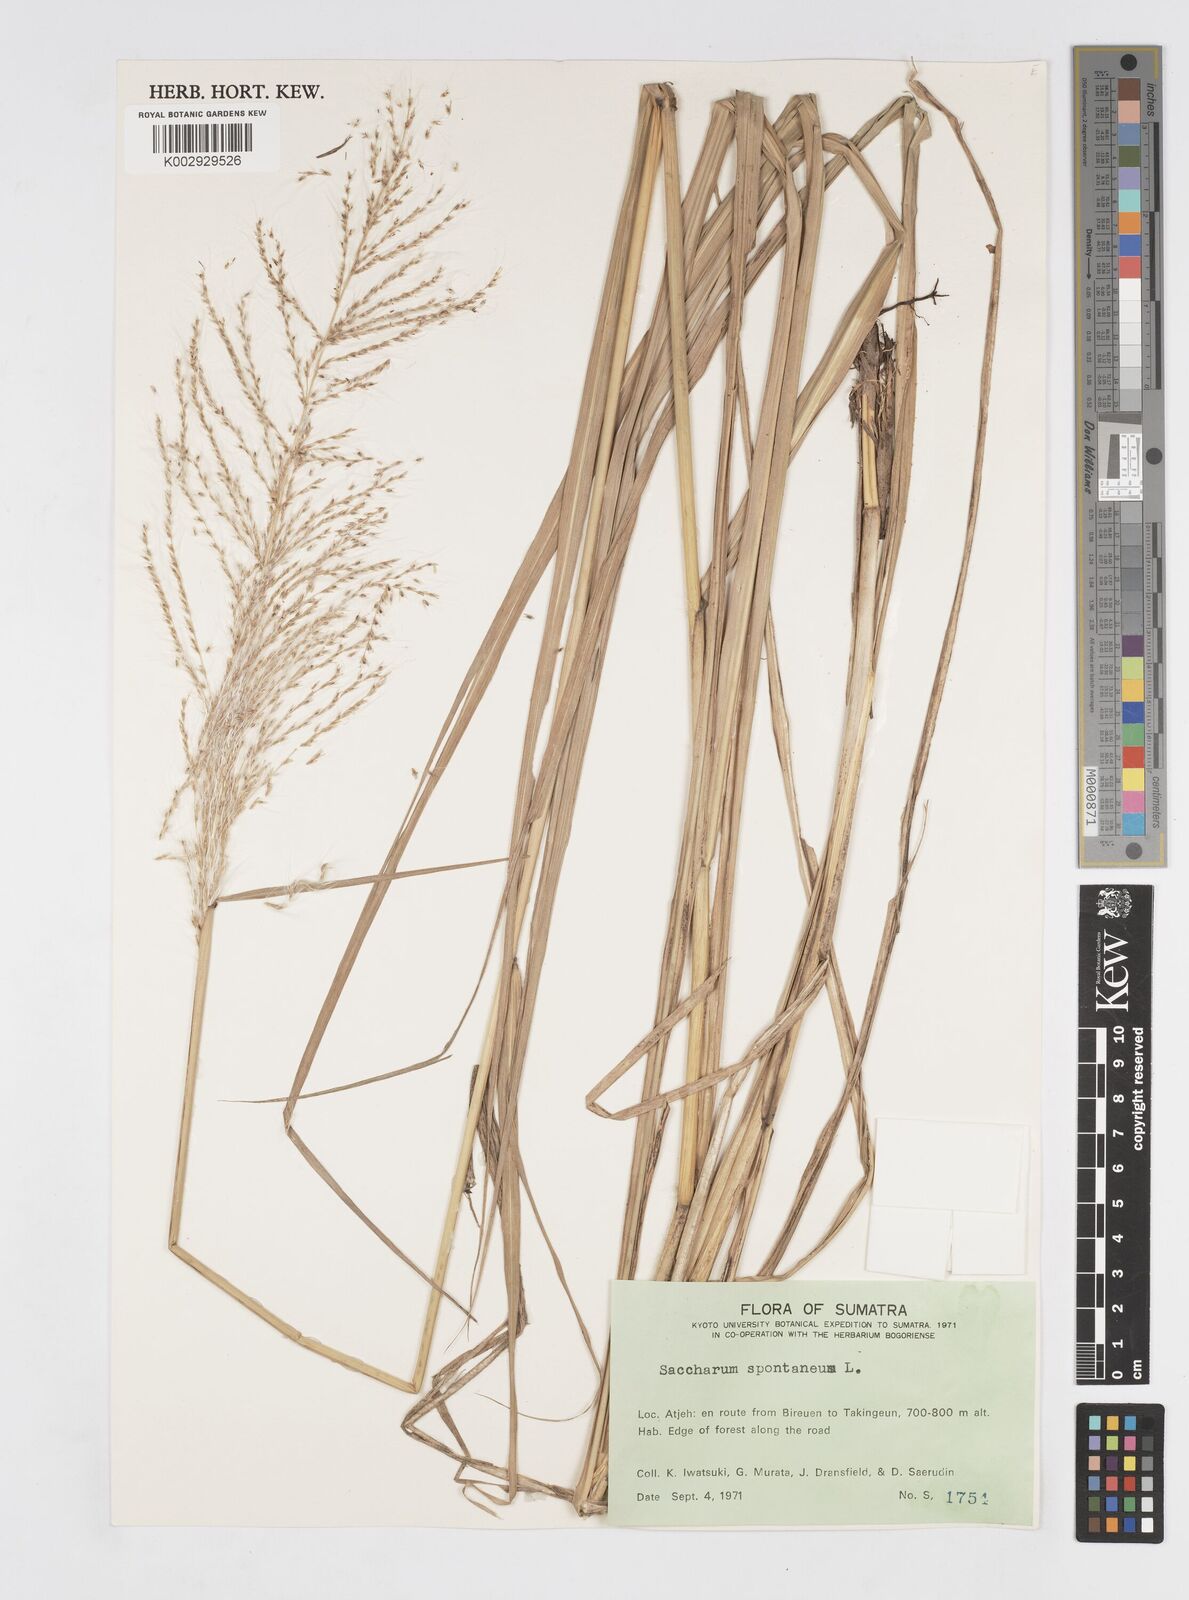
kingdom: Plantae
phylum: Tracheophyta
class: Liliopsida
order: Poales
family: Poaceae
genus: Saccharum
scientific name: Saccharum spontaneum
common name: Wild sugarcane
